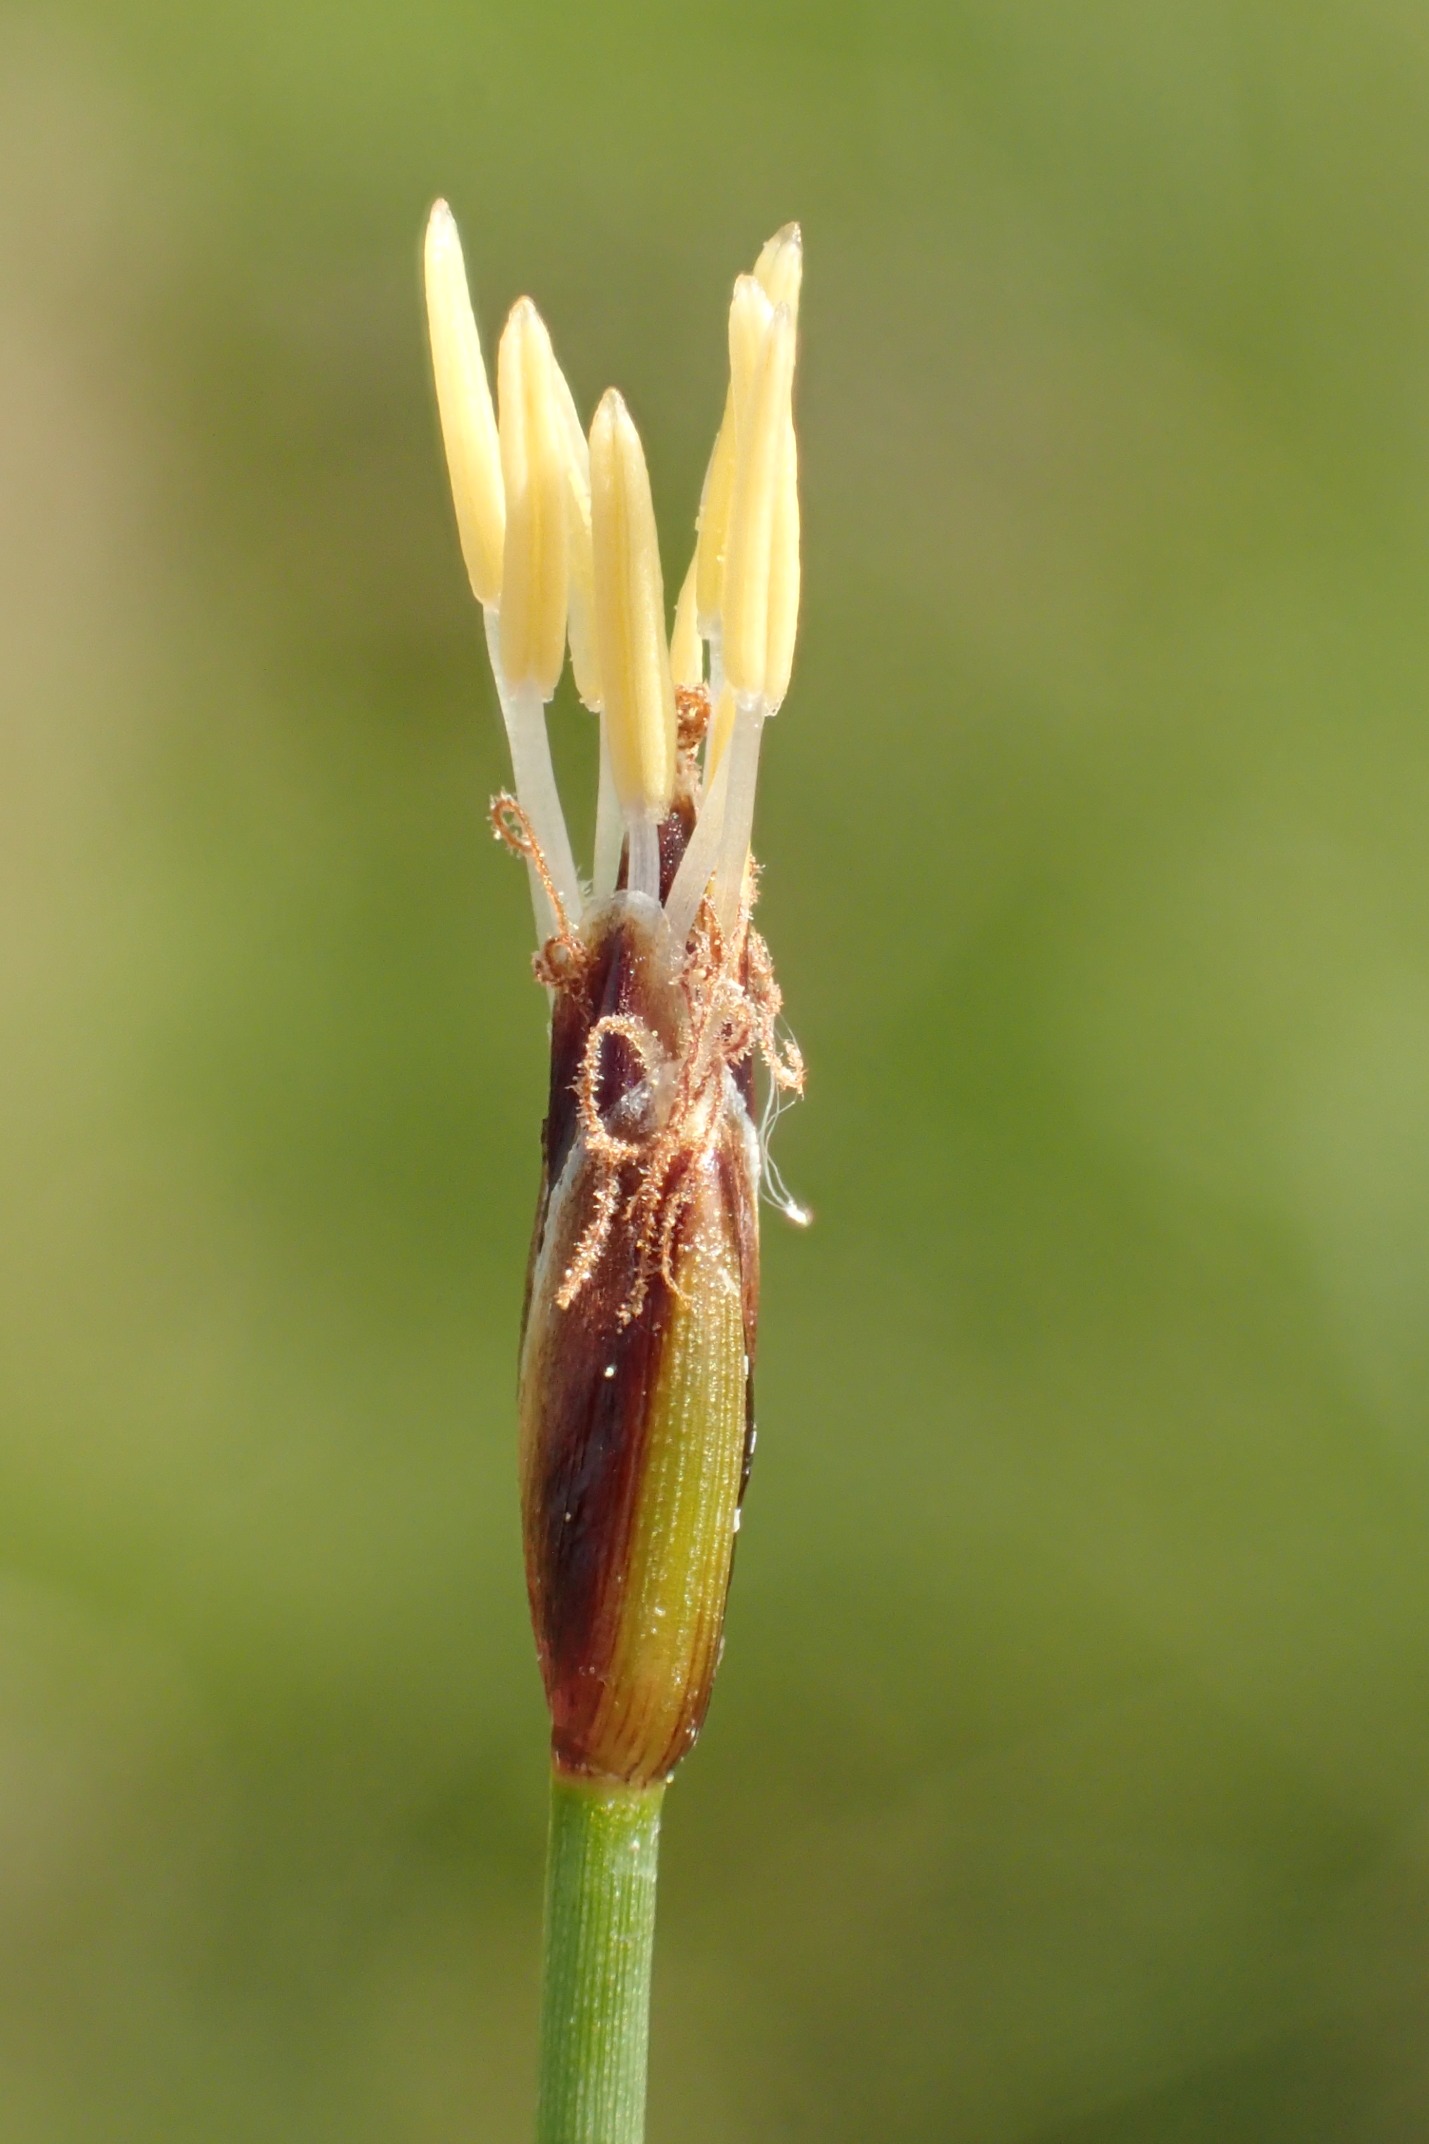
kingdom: Plantae
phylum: Tracheophyta
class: Liliopsida
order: Poales
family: Cyperaceae
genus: Eleocharis
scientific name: Eleocharis quinqueflora
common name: Fåblomstret kogleaks
